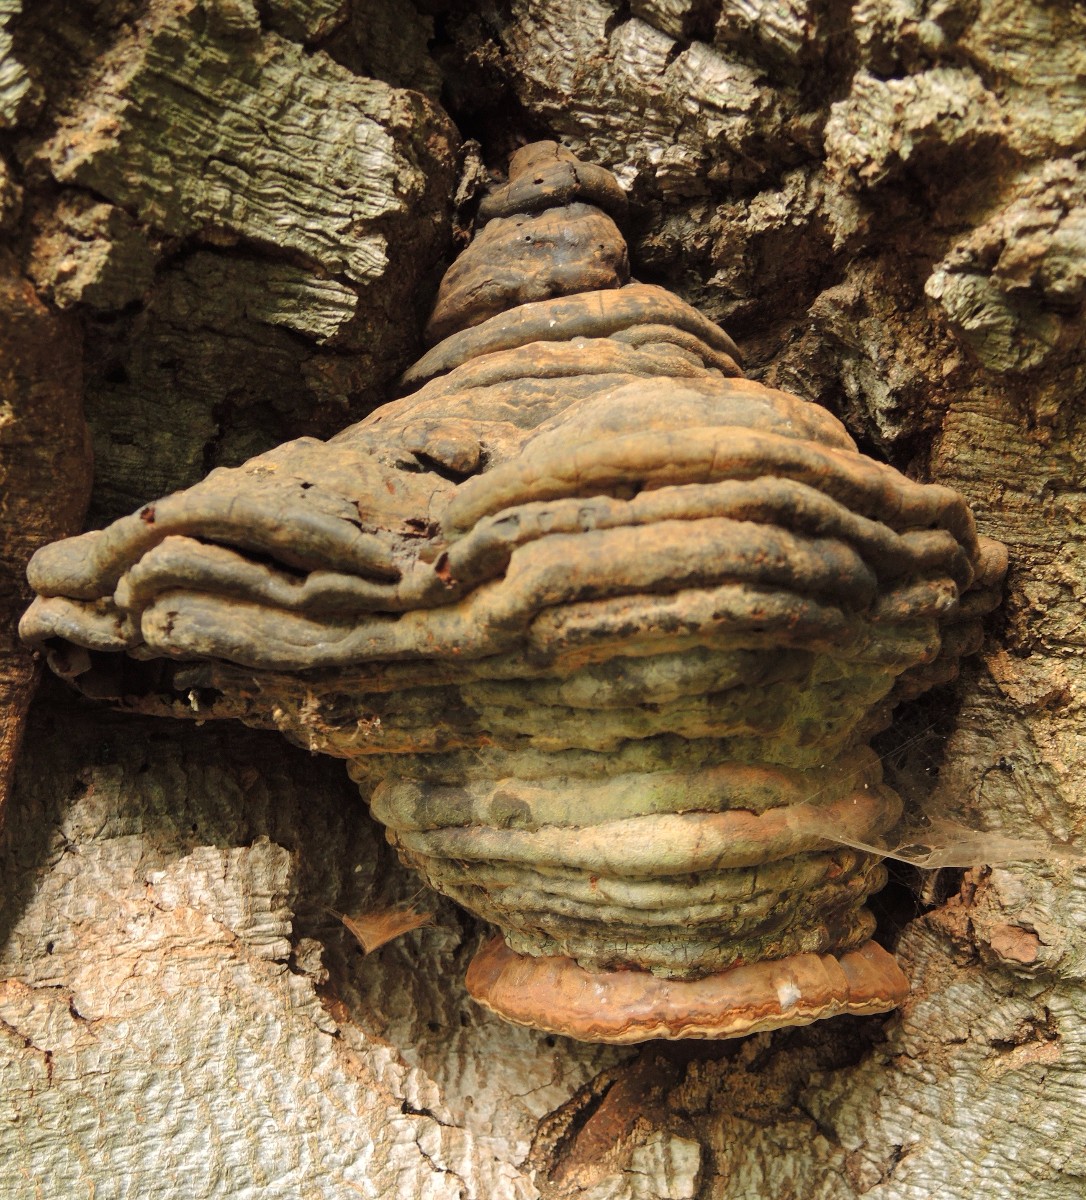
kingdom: Fungi
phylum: Basidiomycota
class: Agaricomycetes
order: Polyporales
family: Polyporaceae
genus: Ganoderma
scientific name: Ganoderma pfeifferi
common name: kobberrød lakporesvamp
